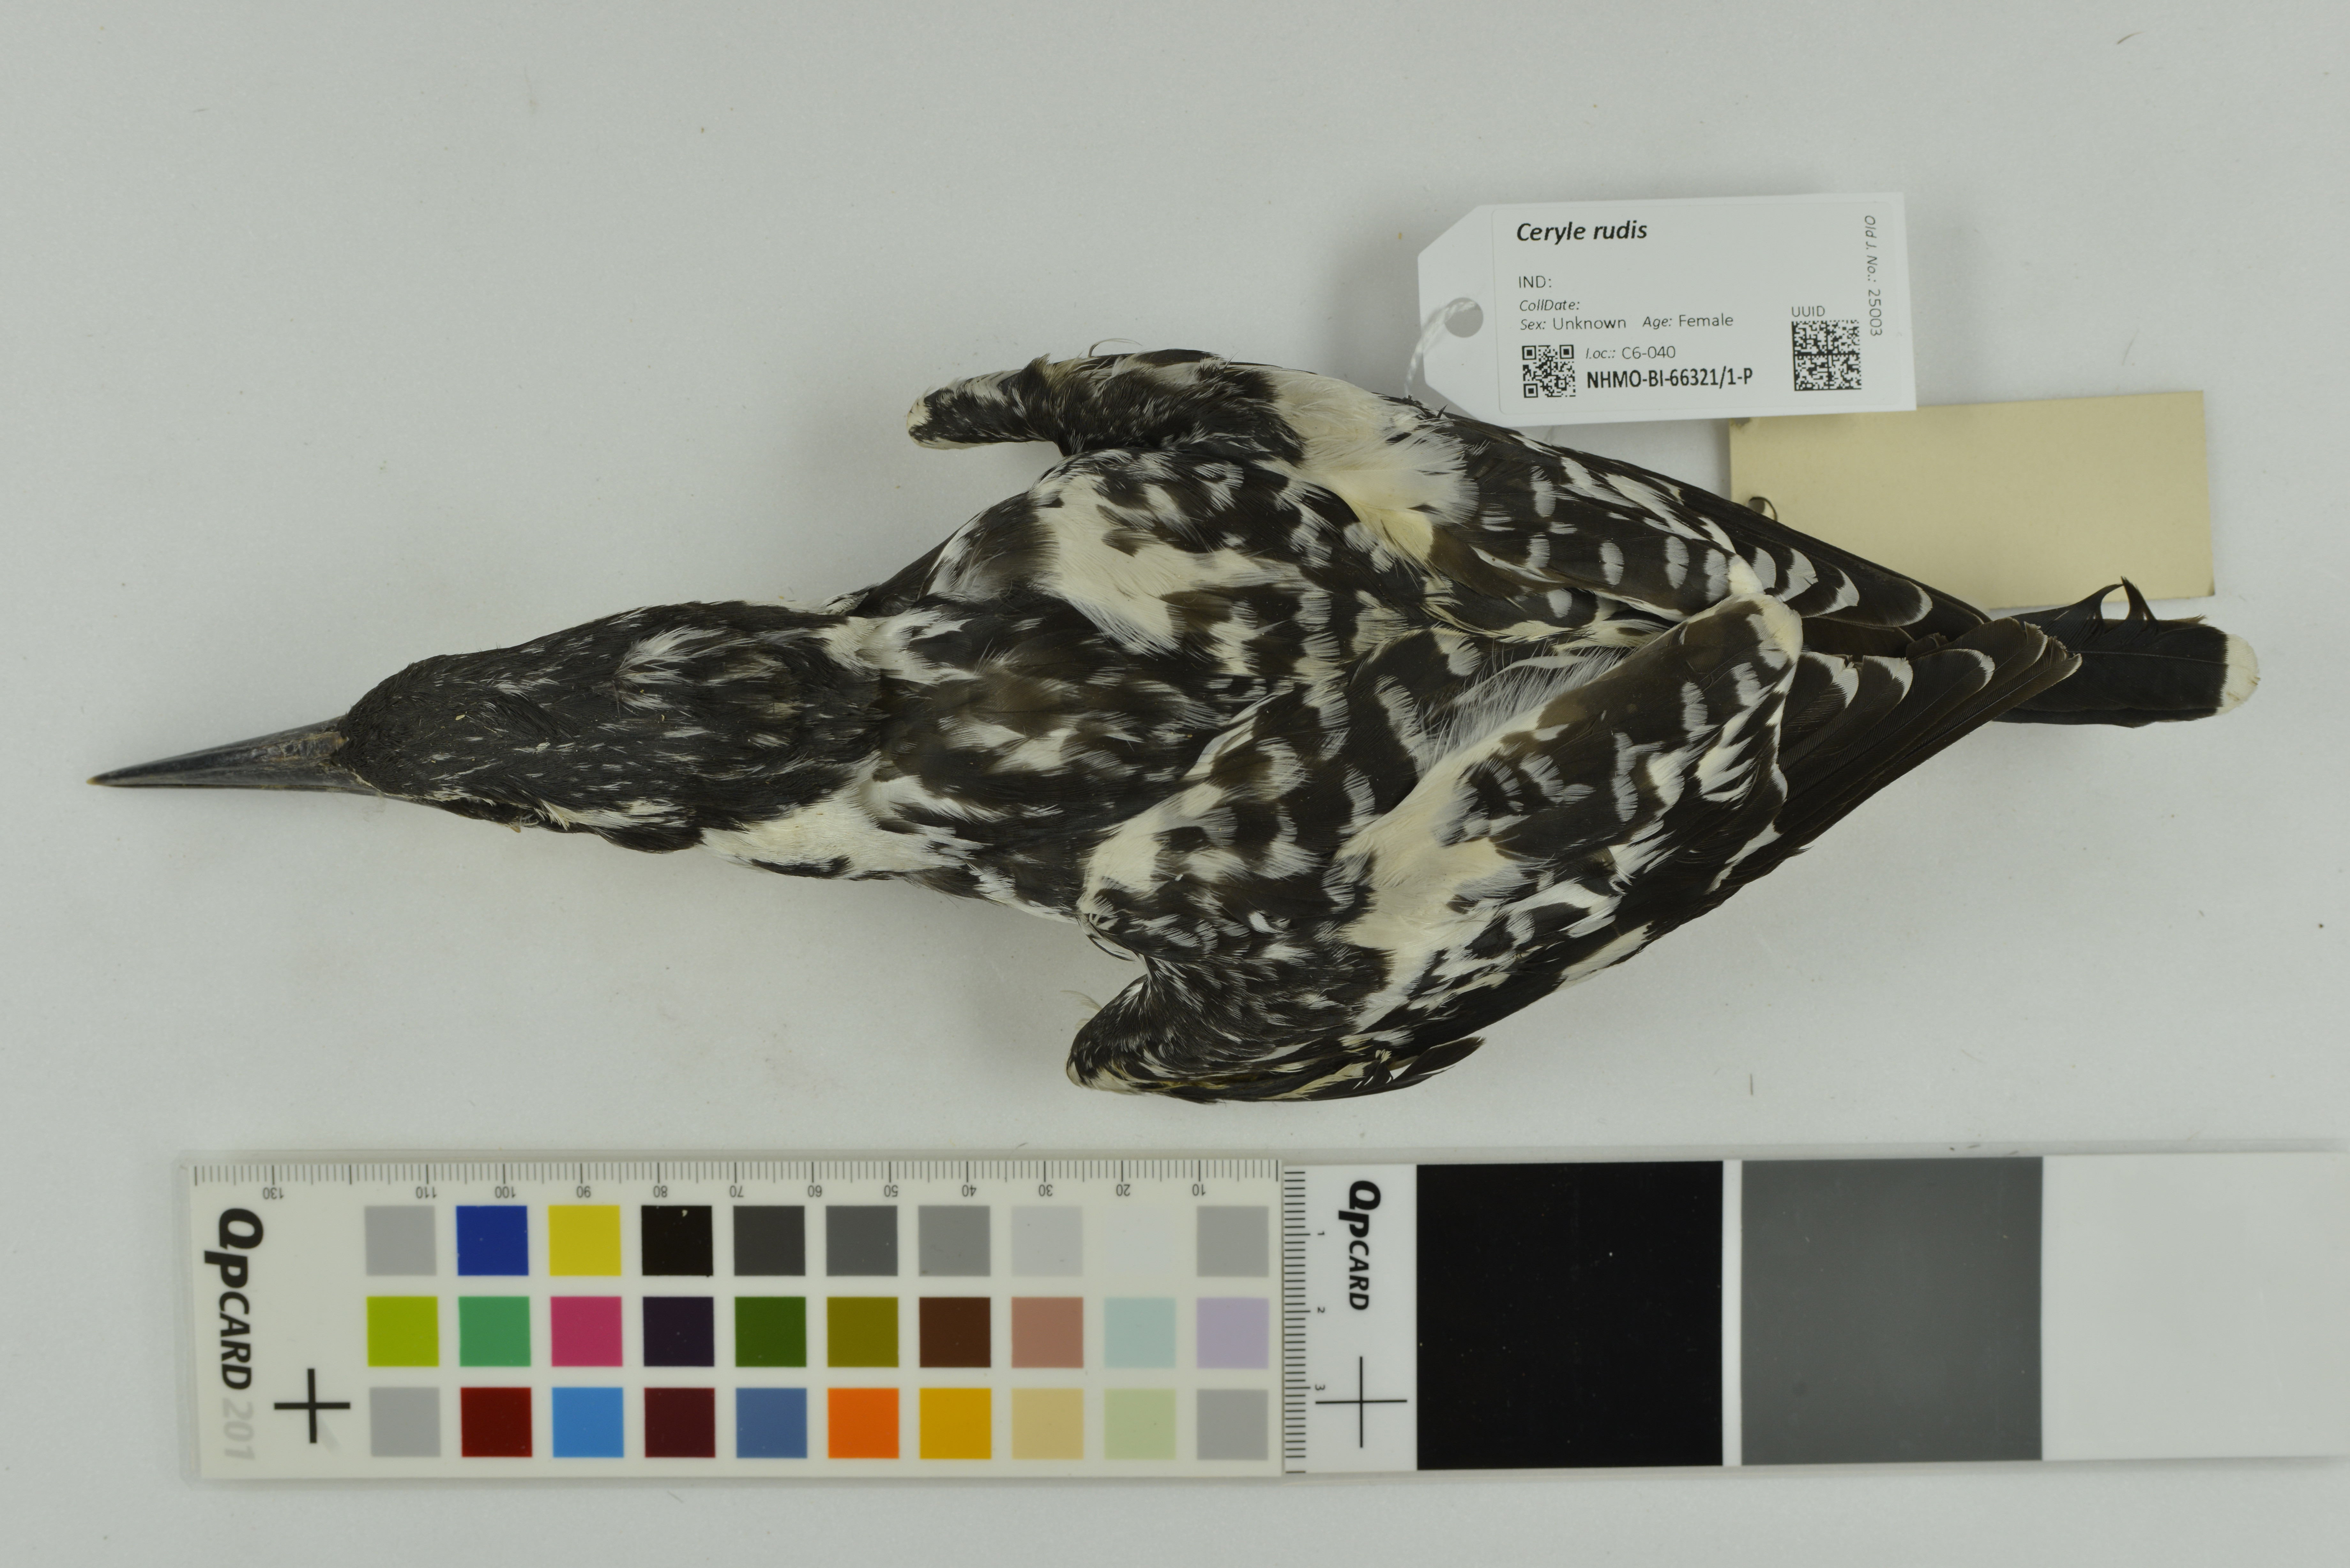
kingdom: Animalia
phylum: Chordata
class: Aves
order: Coraciiformes
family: Alcedinidae
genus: Ceryle
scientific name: Ceryle rudis
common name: Pied kingfisher
